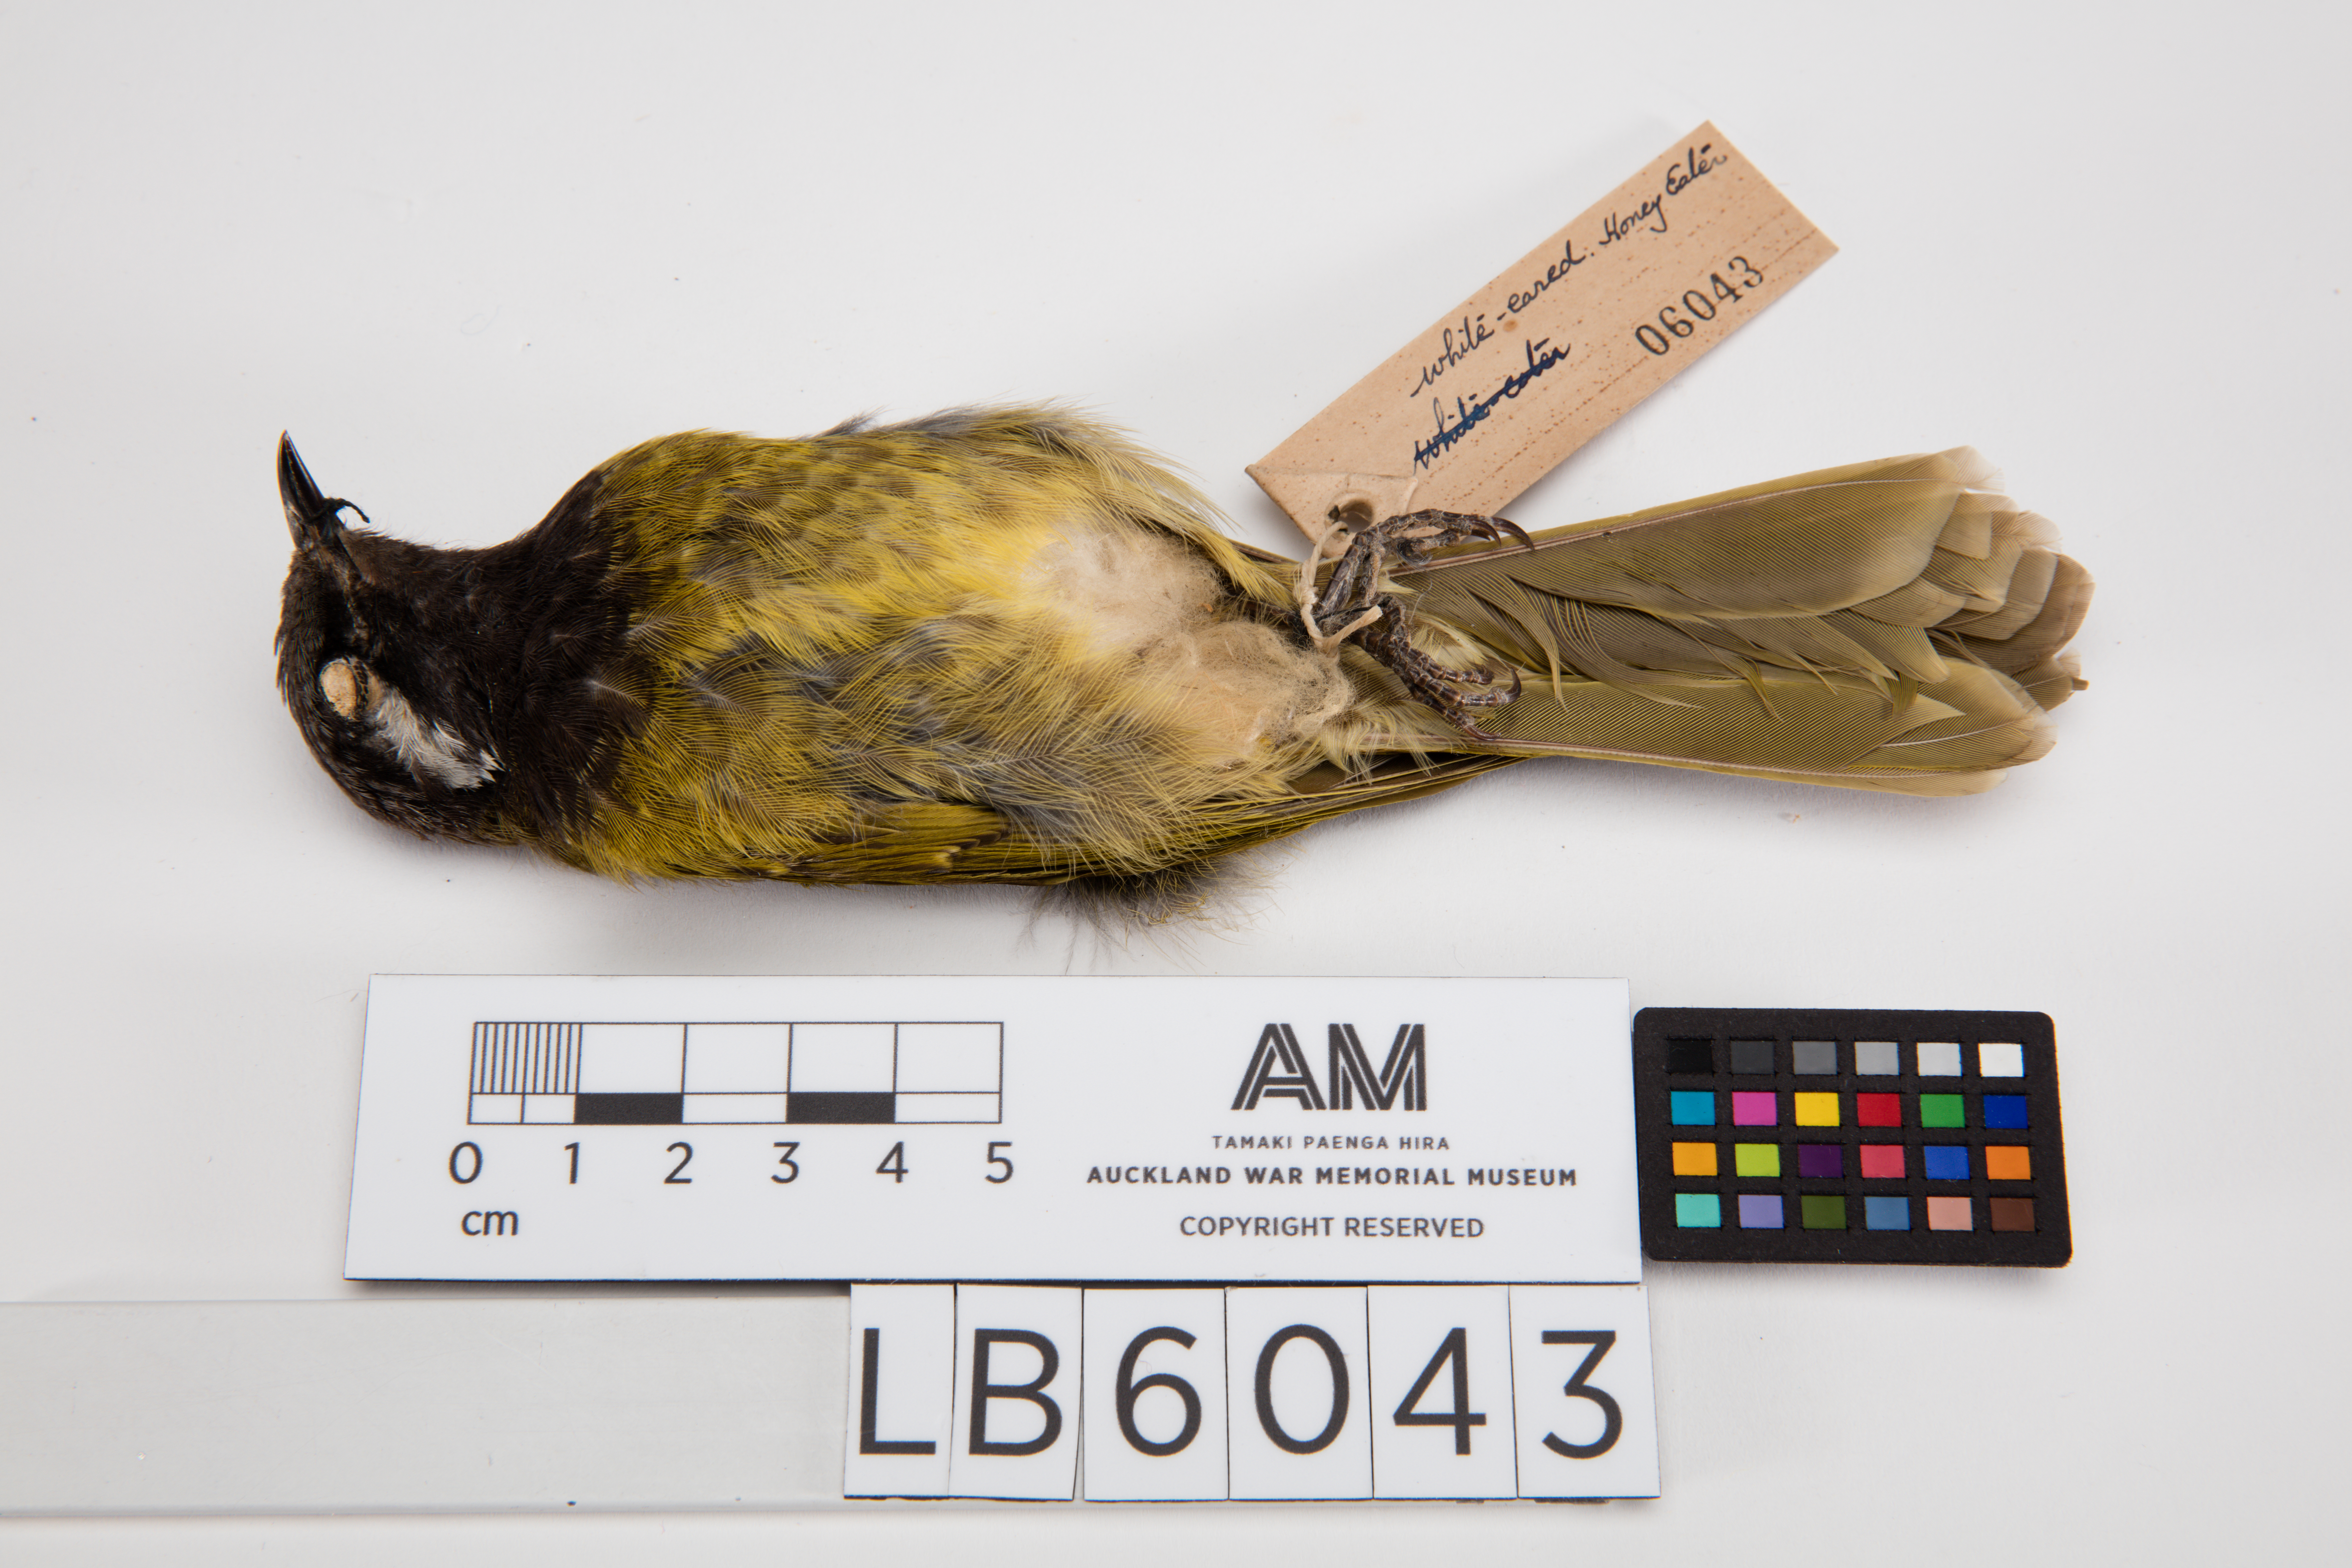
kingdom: Animalia
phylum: Chordata
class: Aves
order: Passeriformes
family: Meliphagidae
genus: Meliphaga
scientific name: Meliphaga
